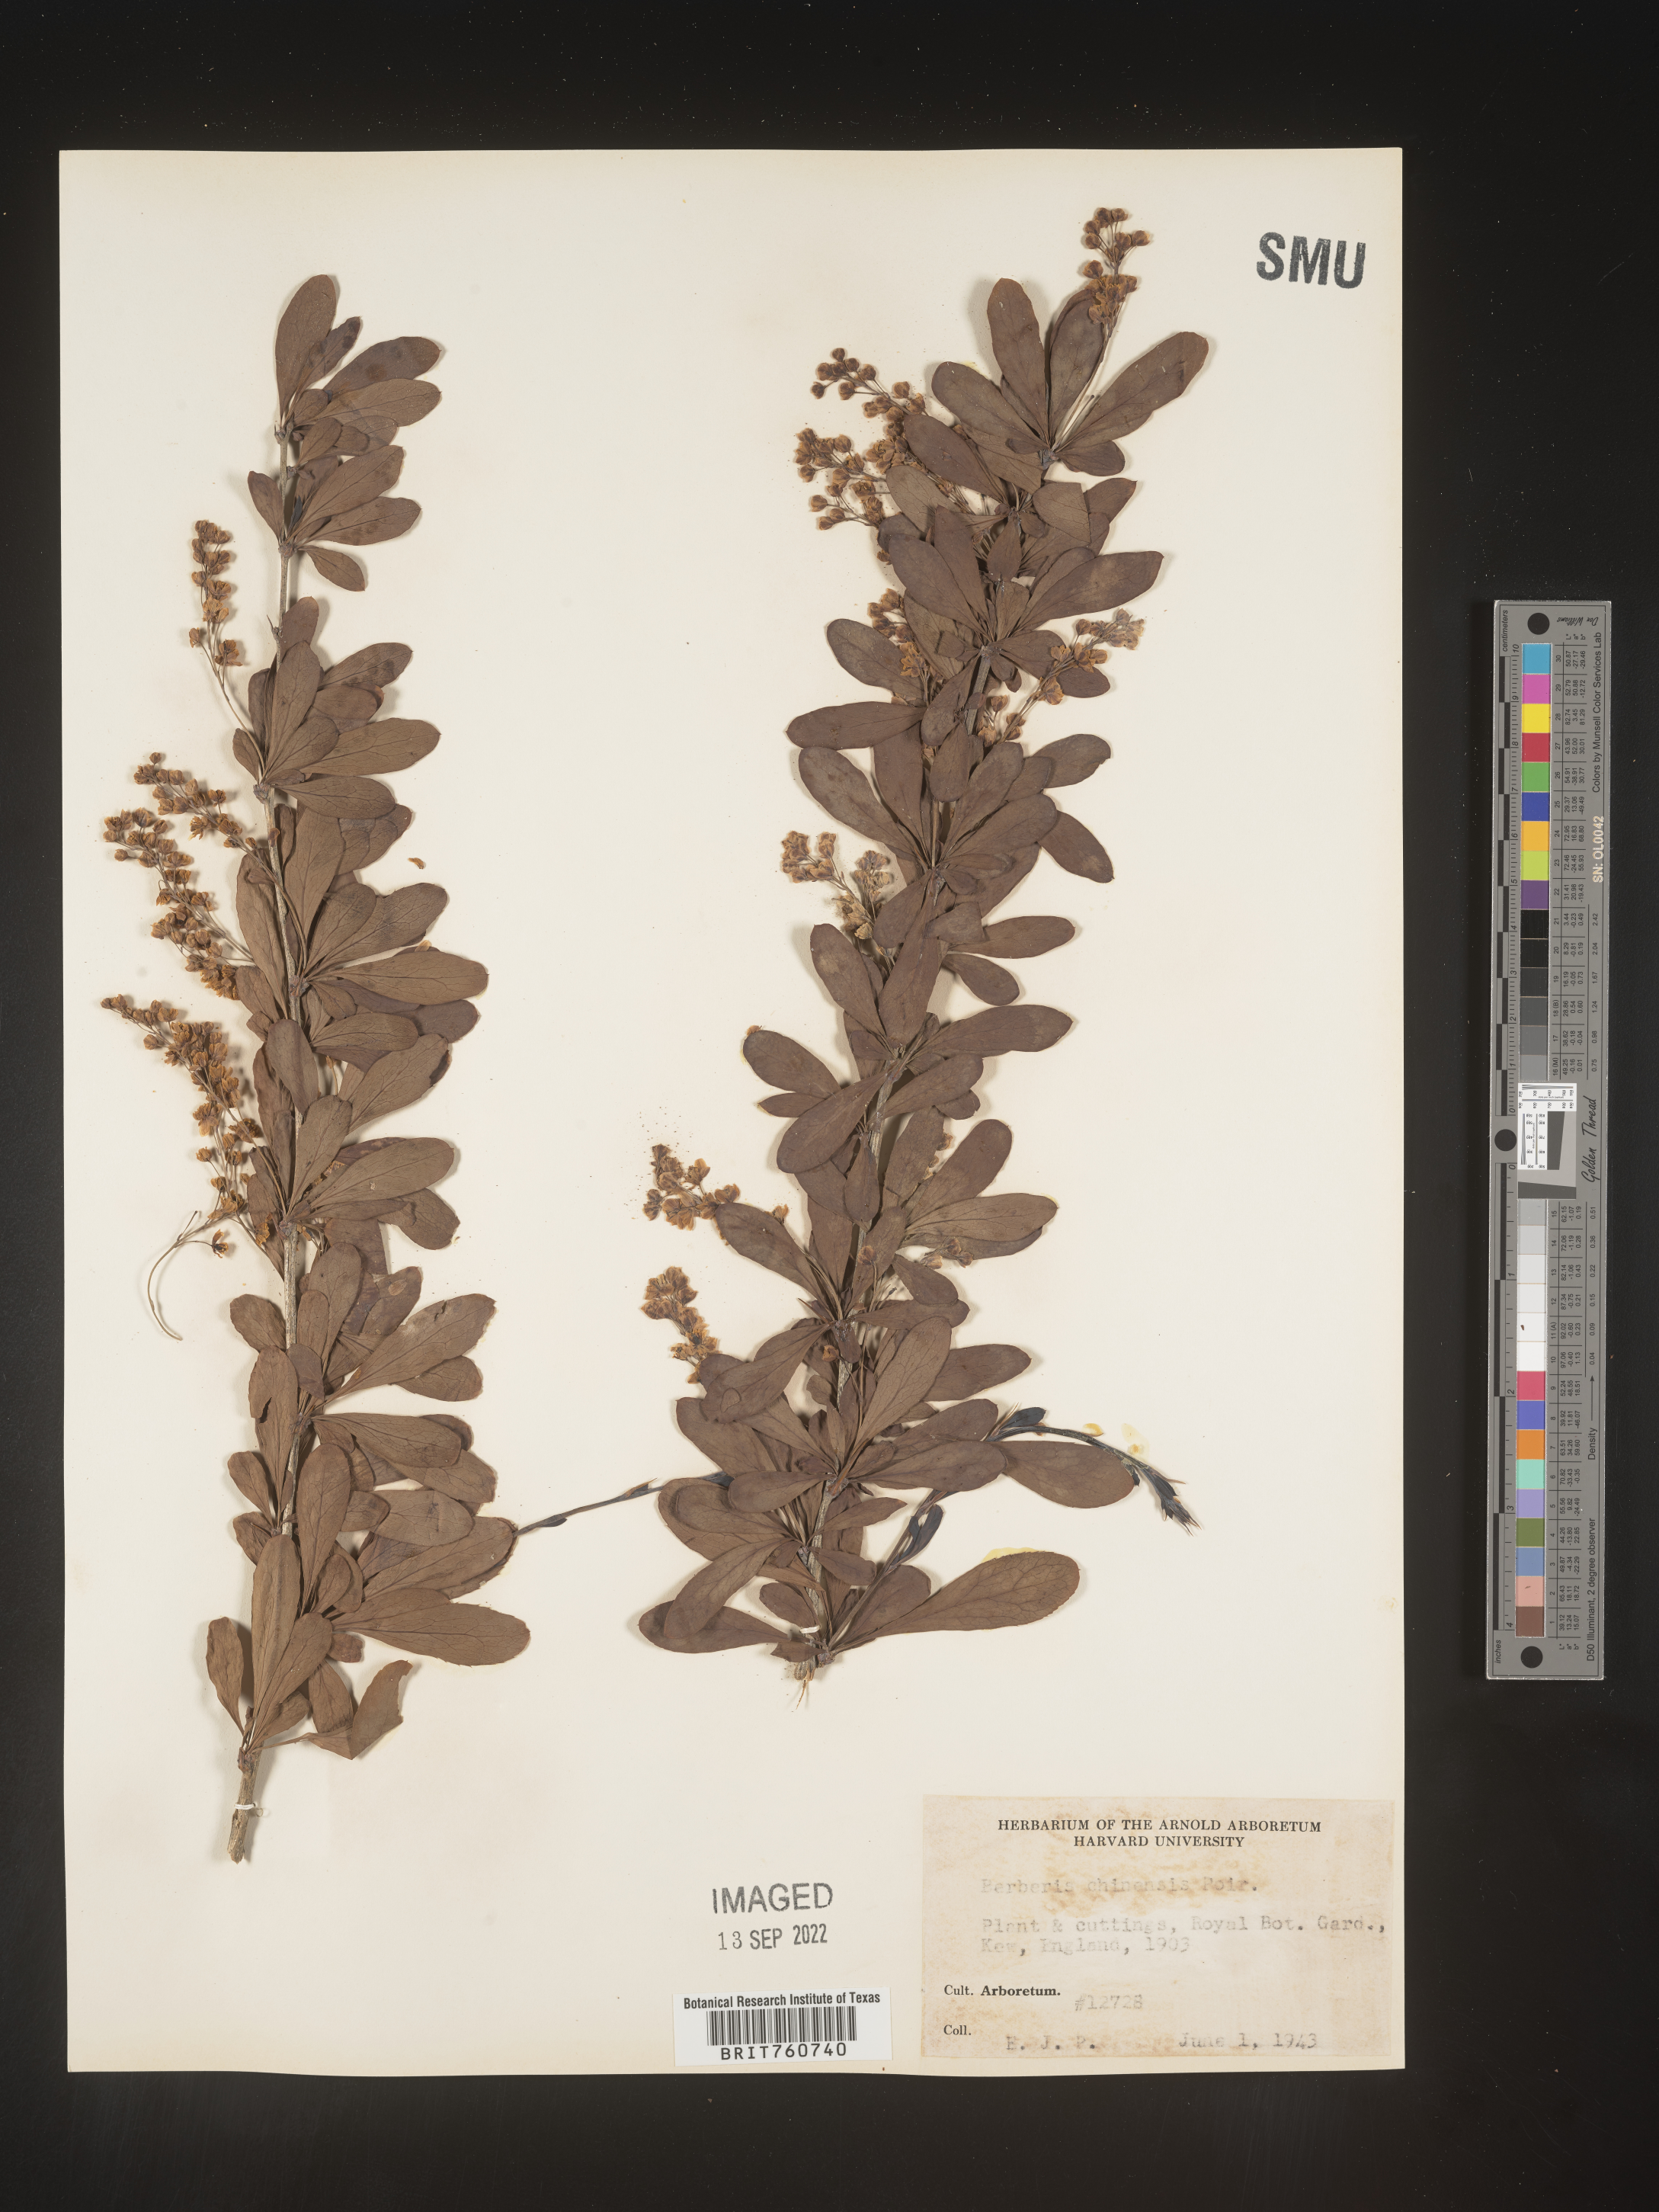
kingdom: Plantae
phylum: Tracheophyta
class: Magnoliopsida
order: Ranunculales
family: Berberidaceae
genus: Berberis
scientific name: Berberis
